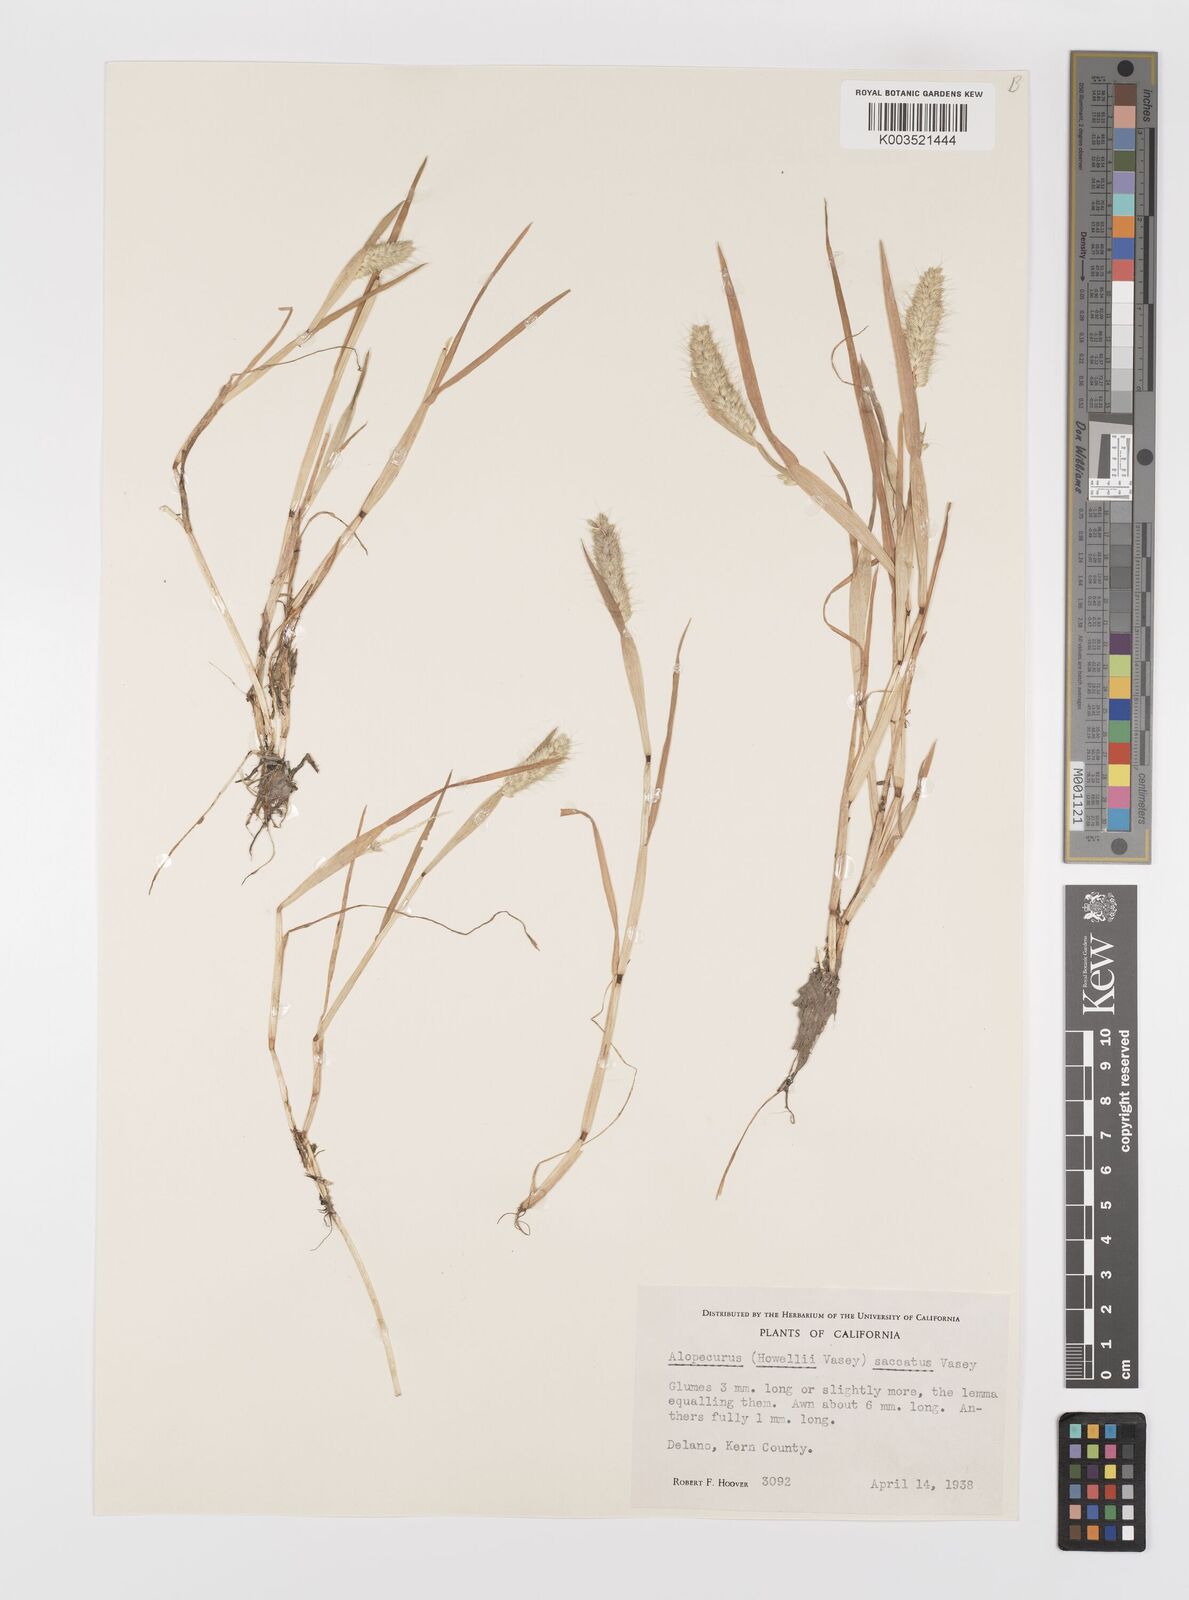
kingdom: Plantae
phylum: Tracheophyta
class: Liliopsida
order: Poales
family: Poaceae
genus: Alopecurus
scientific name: Alopecurus saccatus
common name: Pacific foxtail
